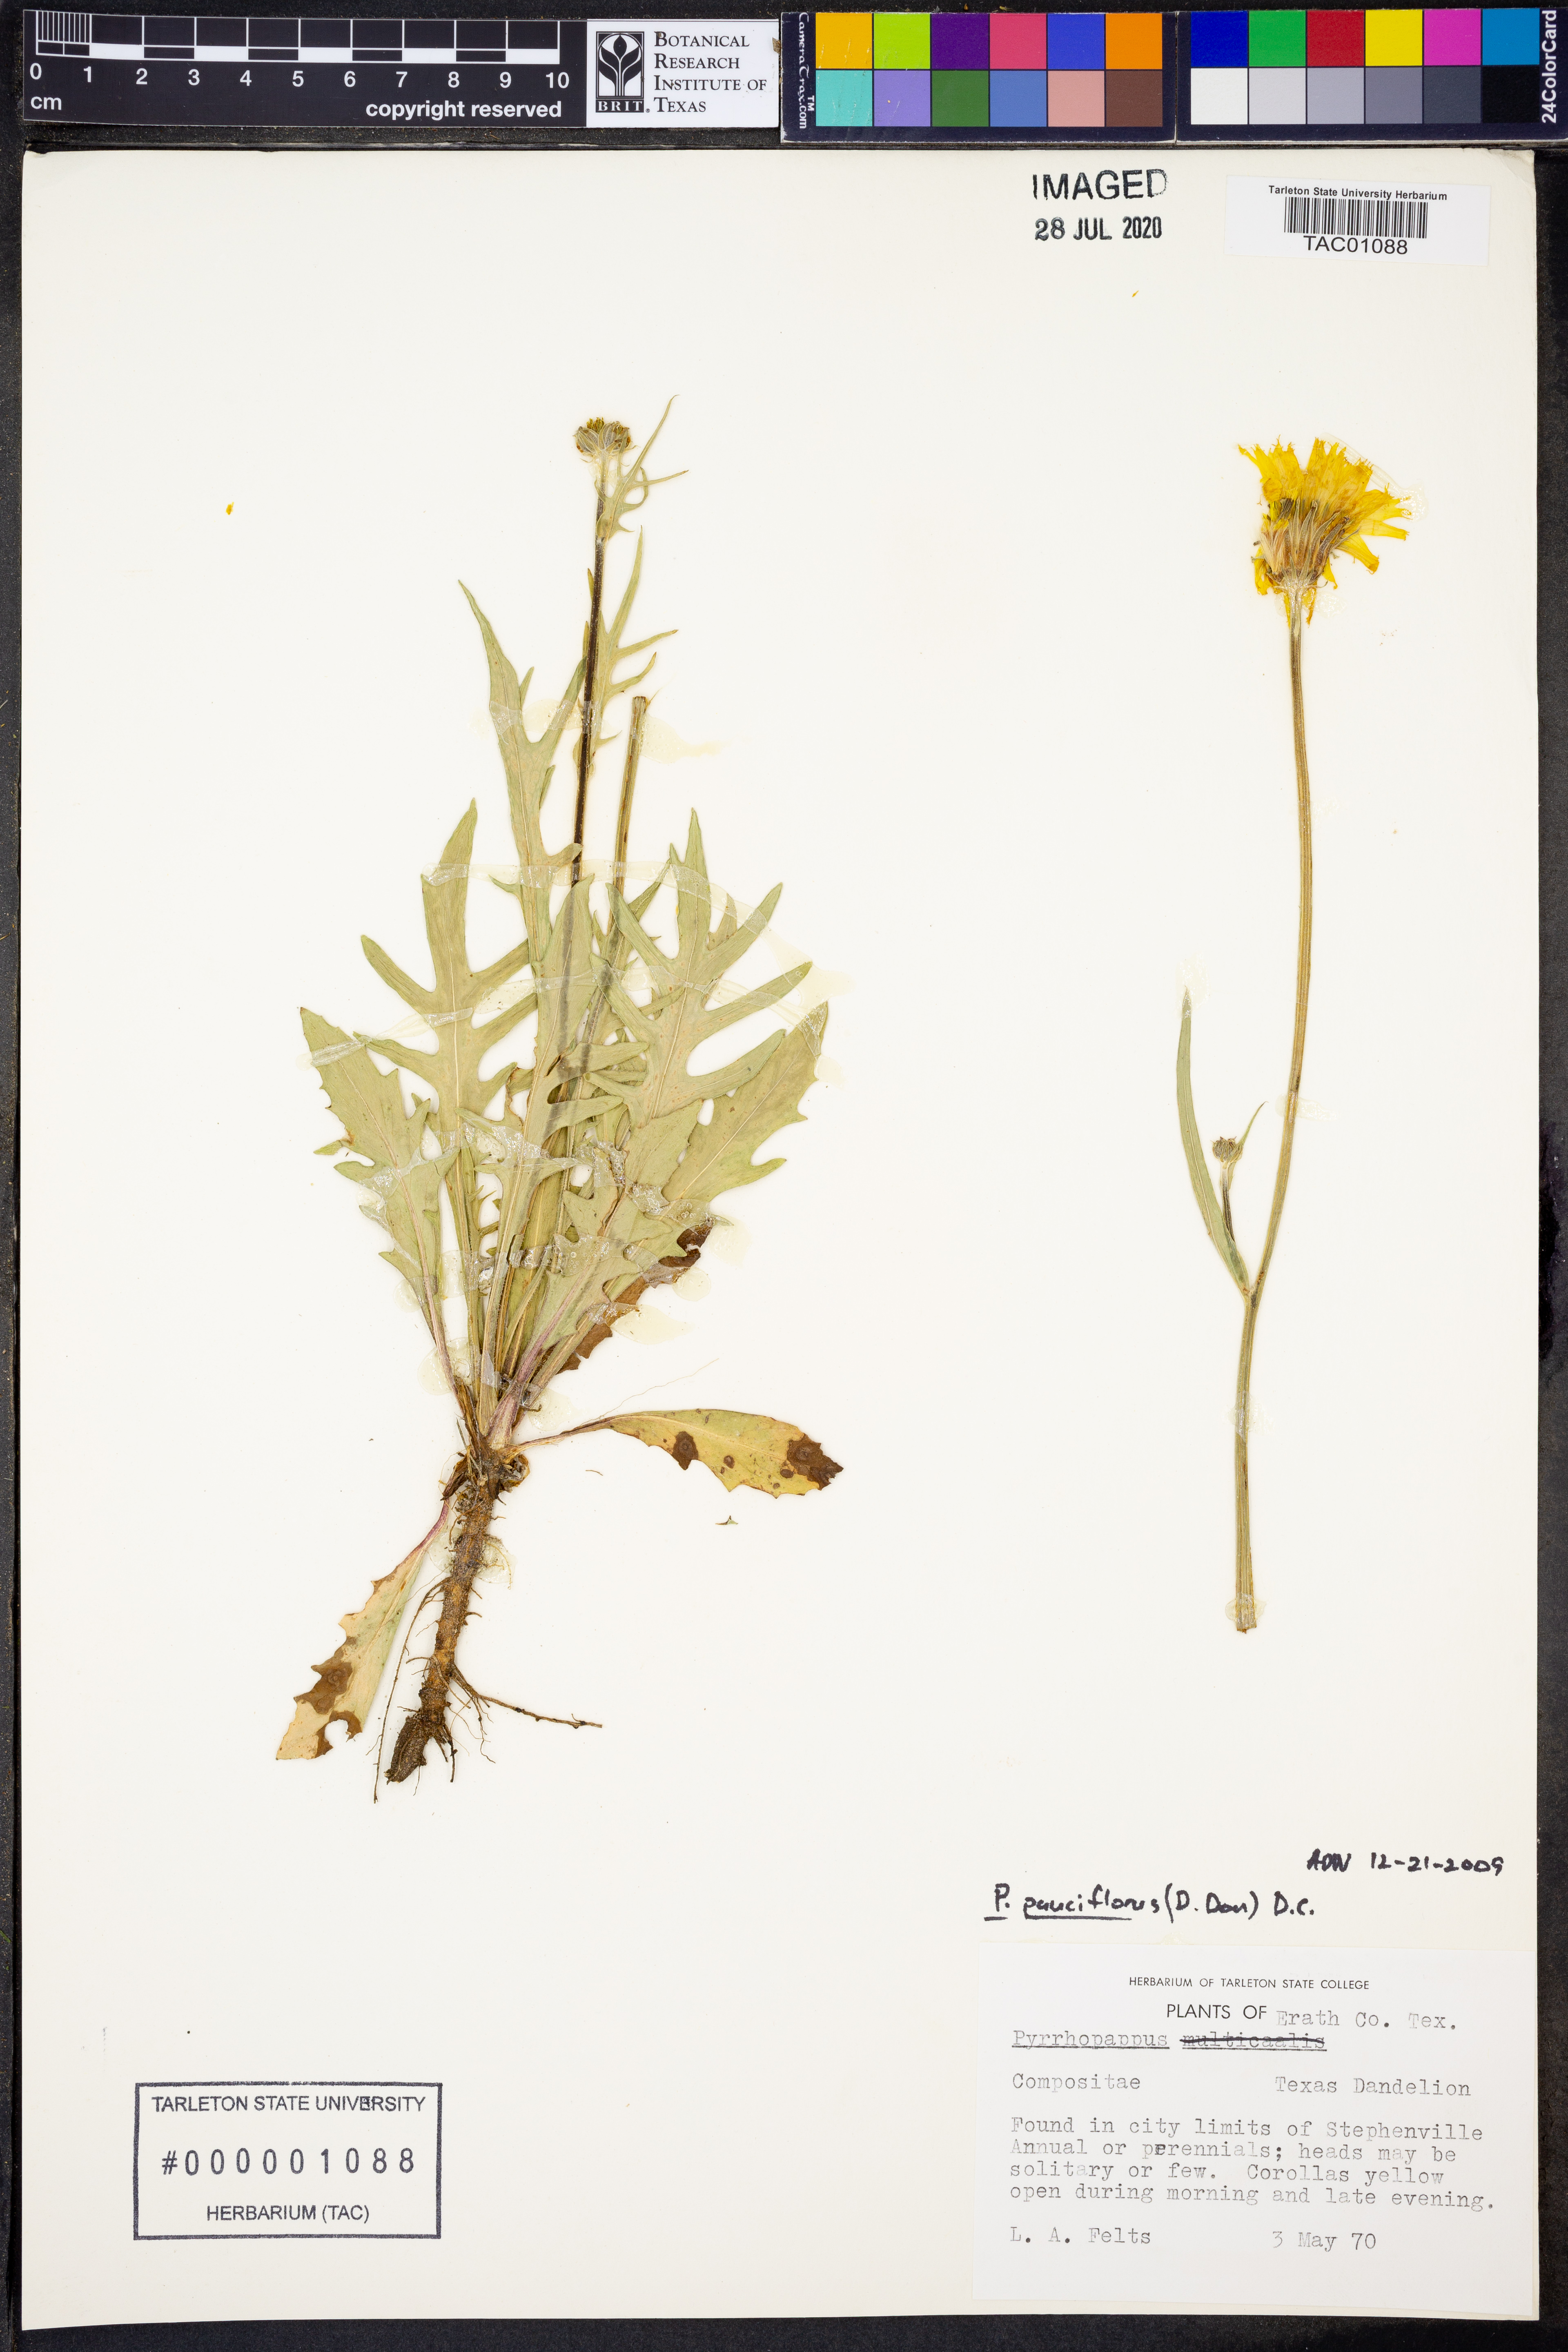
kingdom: Plantae
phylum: Tracheophyta
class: Magnoliopsida
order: Asterales
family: Asteraceae
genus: Pyrrhopappus
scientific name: Pyrrhopappus pauciflorus
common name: Texas false dandelion
